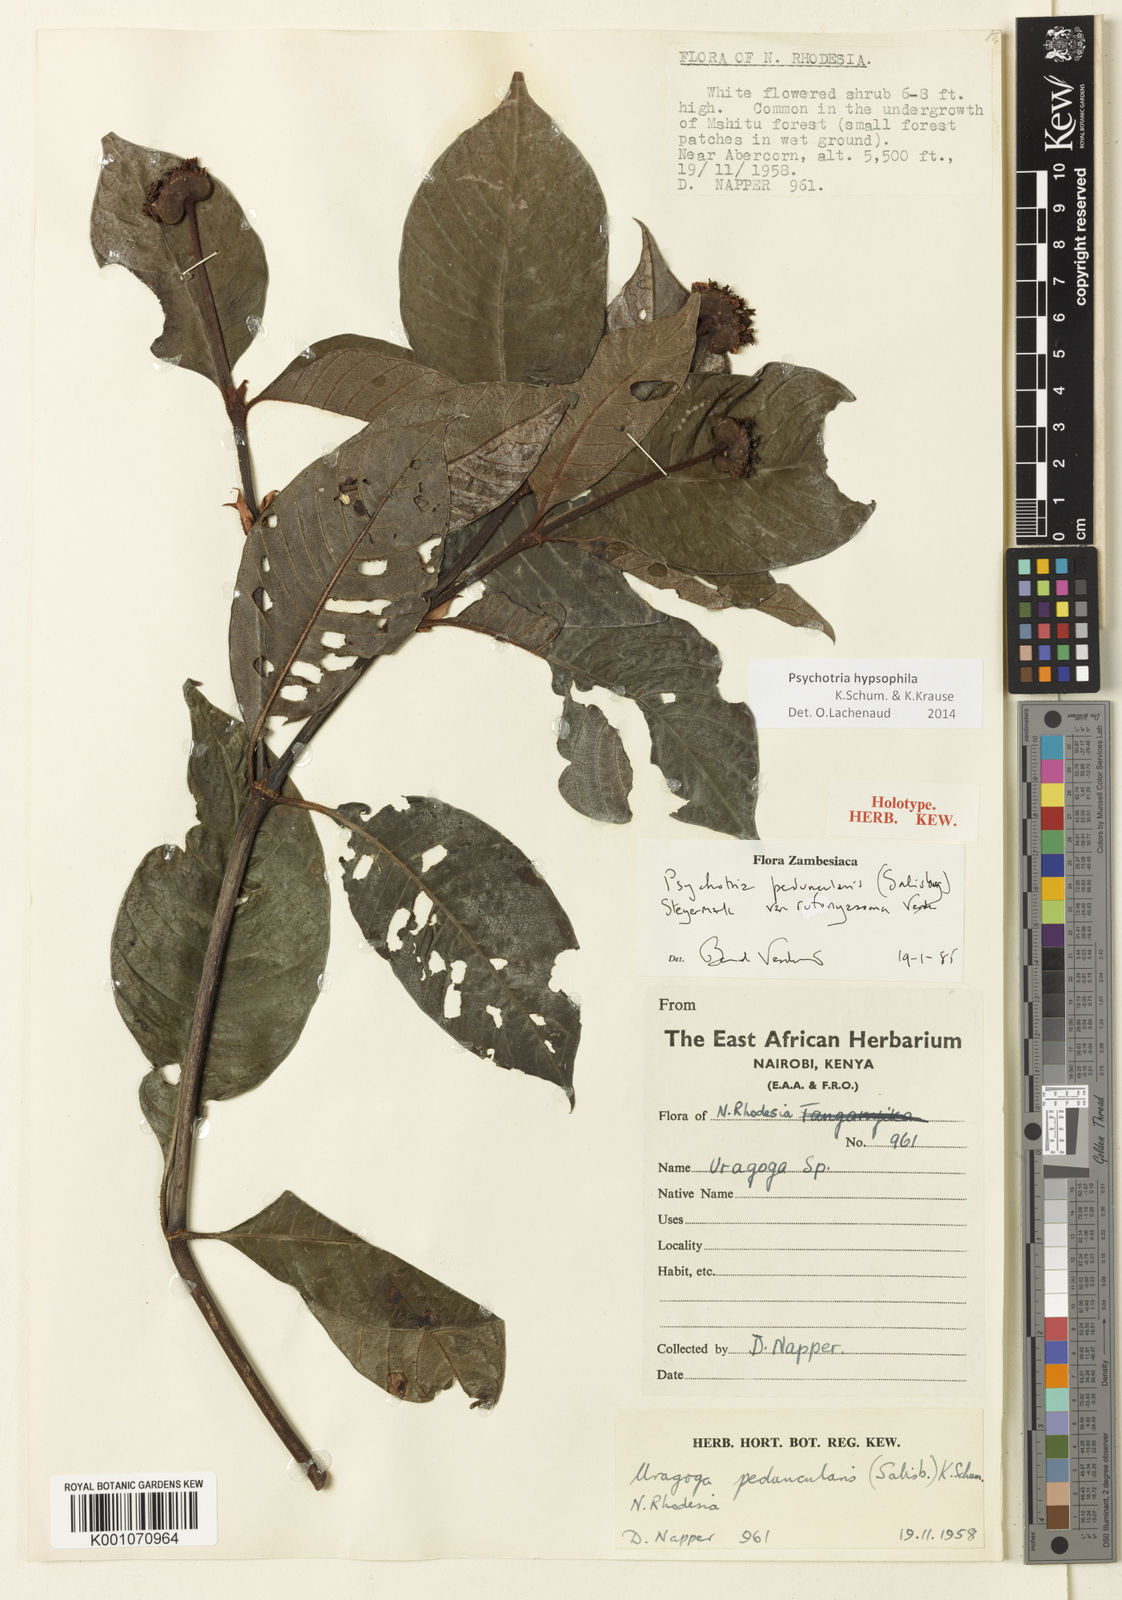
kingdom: Plantae
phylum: Tracheophyta
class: Magnoliopsida
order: Gentianales
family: Rubiaceae
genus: Psychotria
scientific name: Psychotria peduncularis
